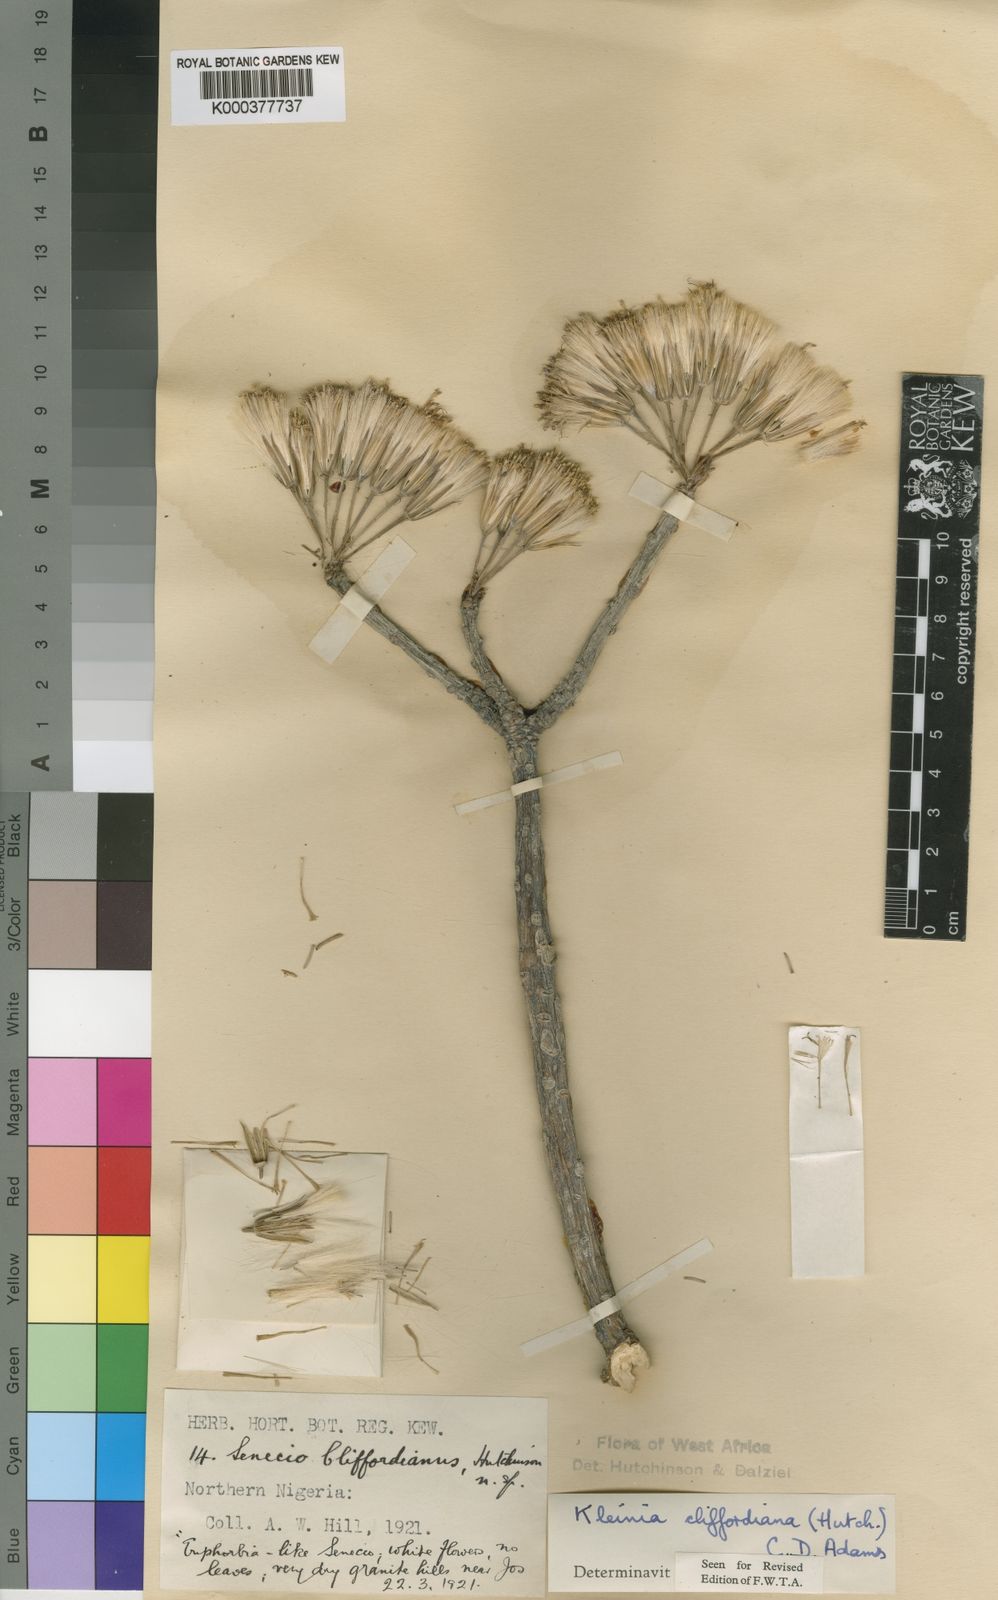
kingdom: Plantae
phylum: Tracheophyta
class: Magnoliopsida
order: Asterales
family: Asteraceae
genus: Kleinia
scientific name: Kleinia cliffordiana
